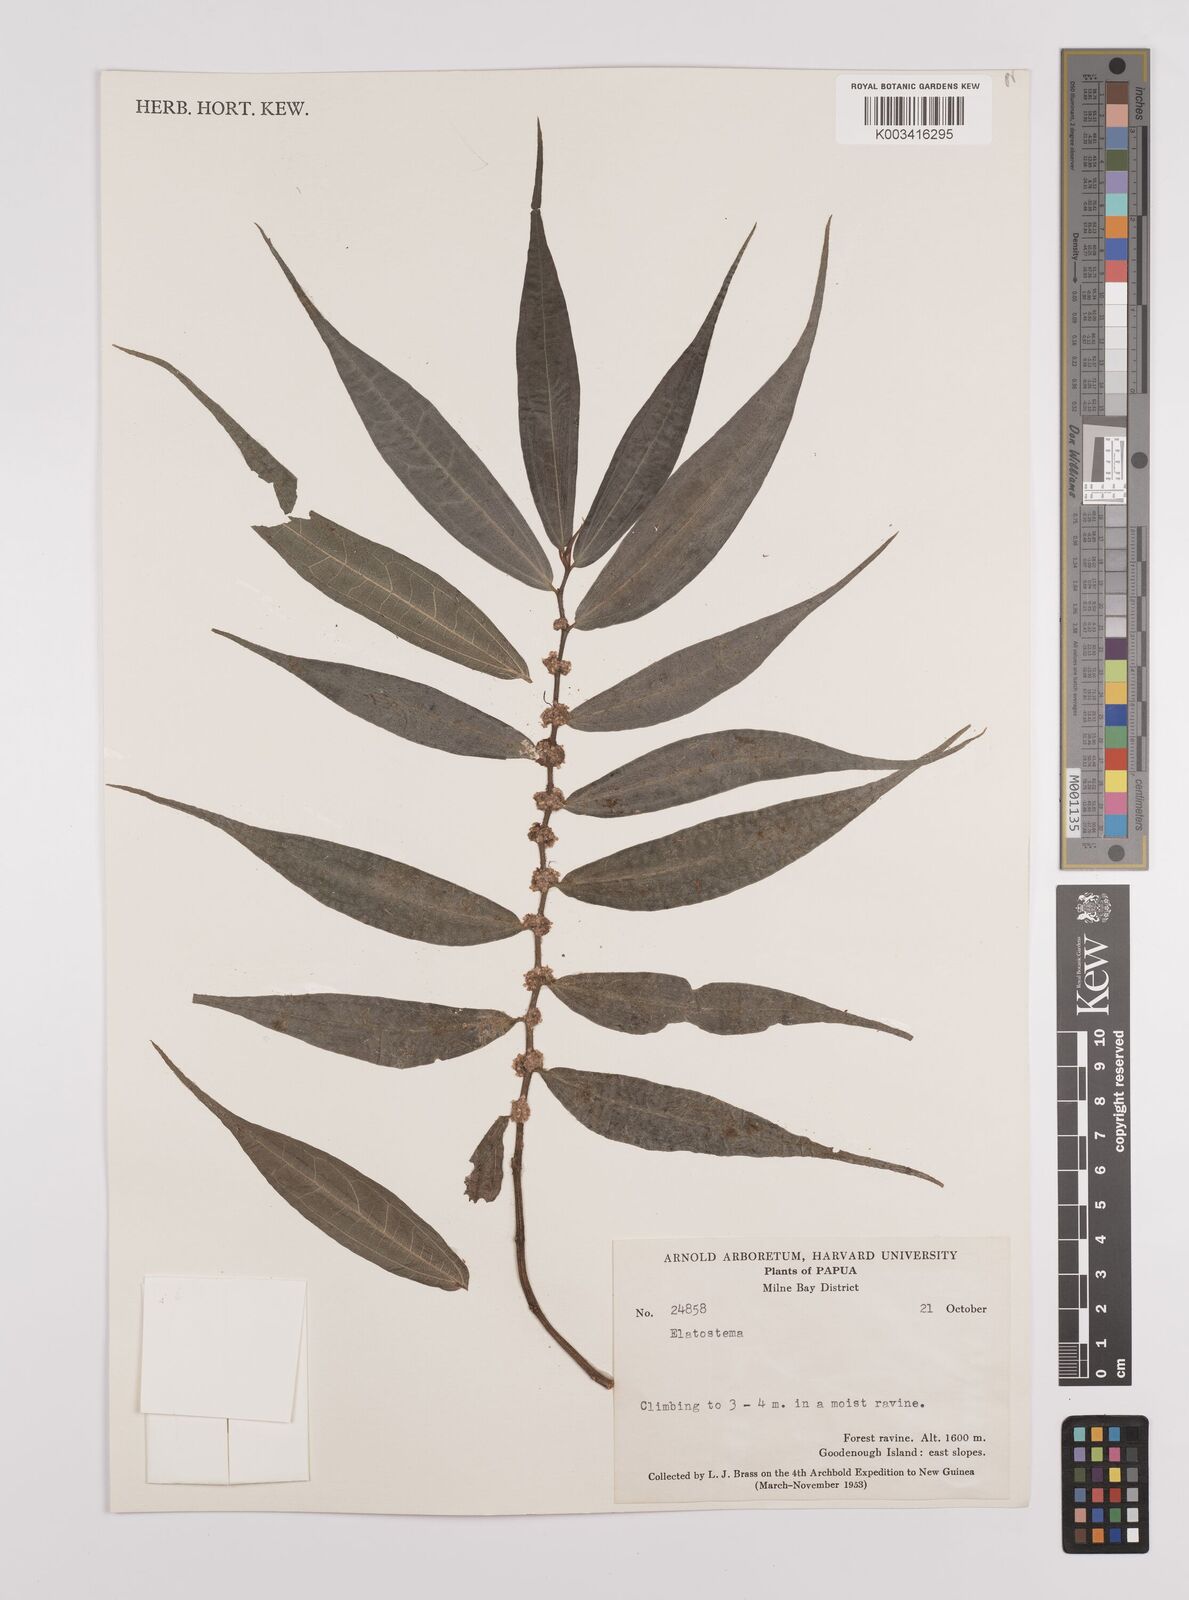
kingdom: Plantae
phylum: Tracheophyta
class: Magnoliopsida
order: Rosales
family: Urticaceae
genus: Elatostema
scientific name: Elatostema integrifolium
